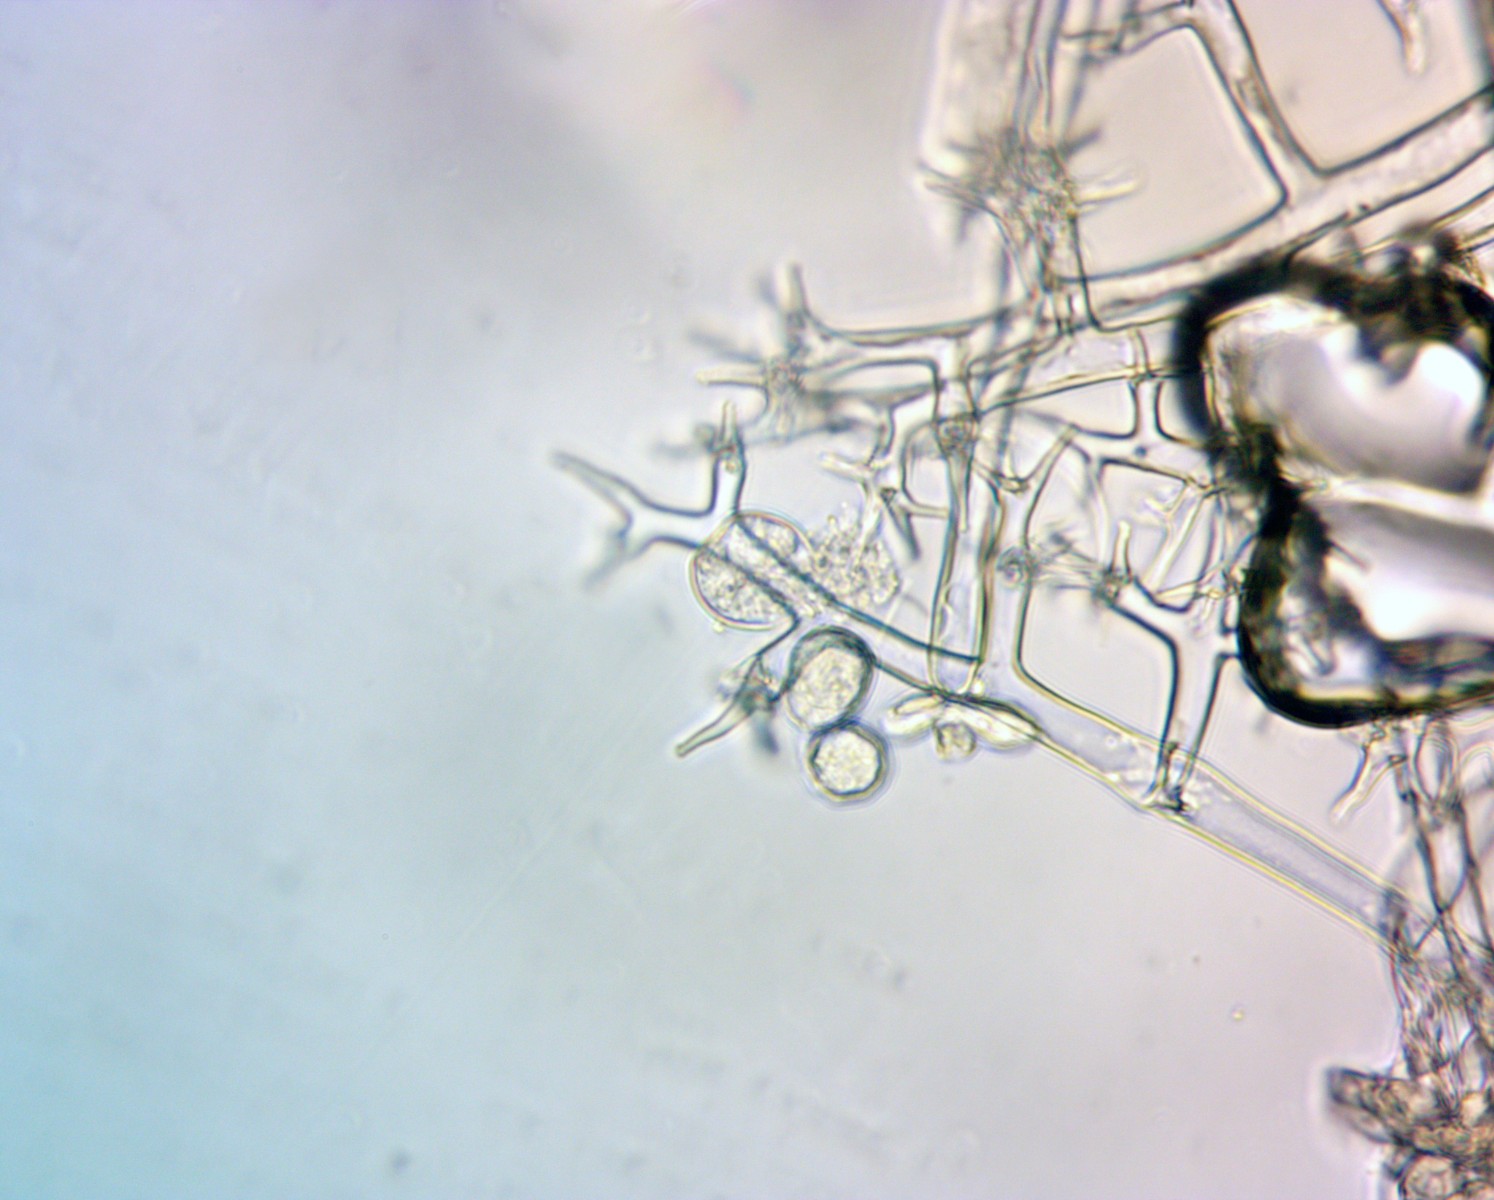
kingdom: Chromista
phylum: Oomycota
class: Peronosporea
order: Peronosporales
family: Peronosporaceae
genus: Peronospora
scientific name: Peronospora crustosa
